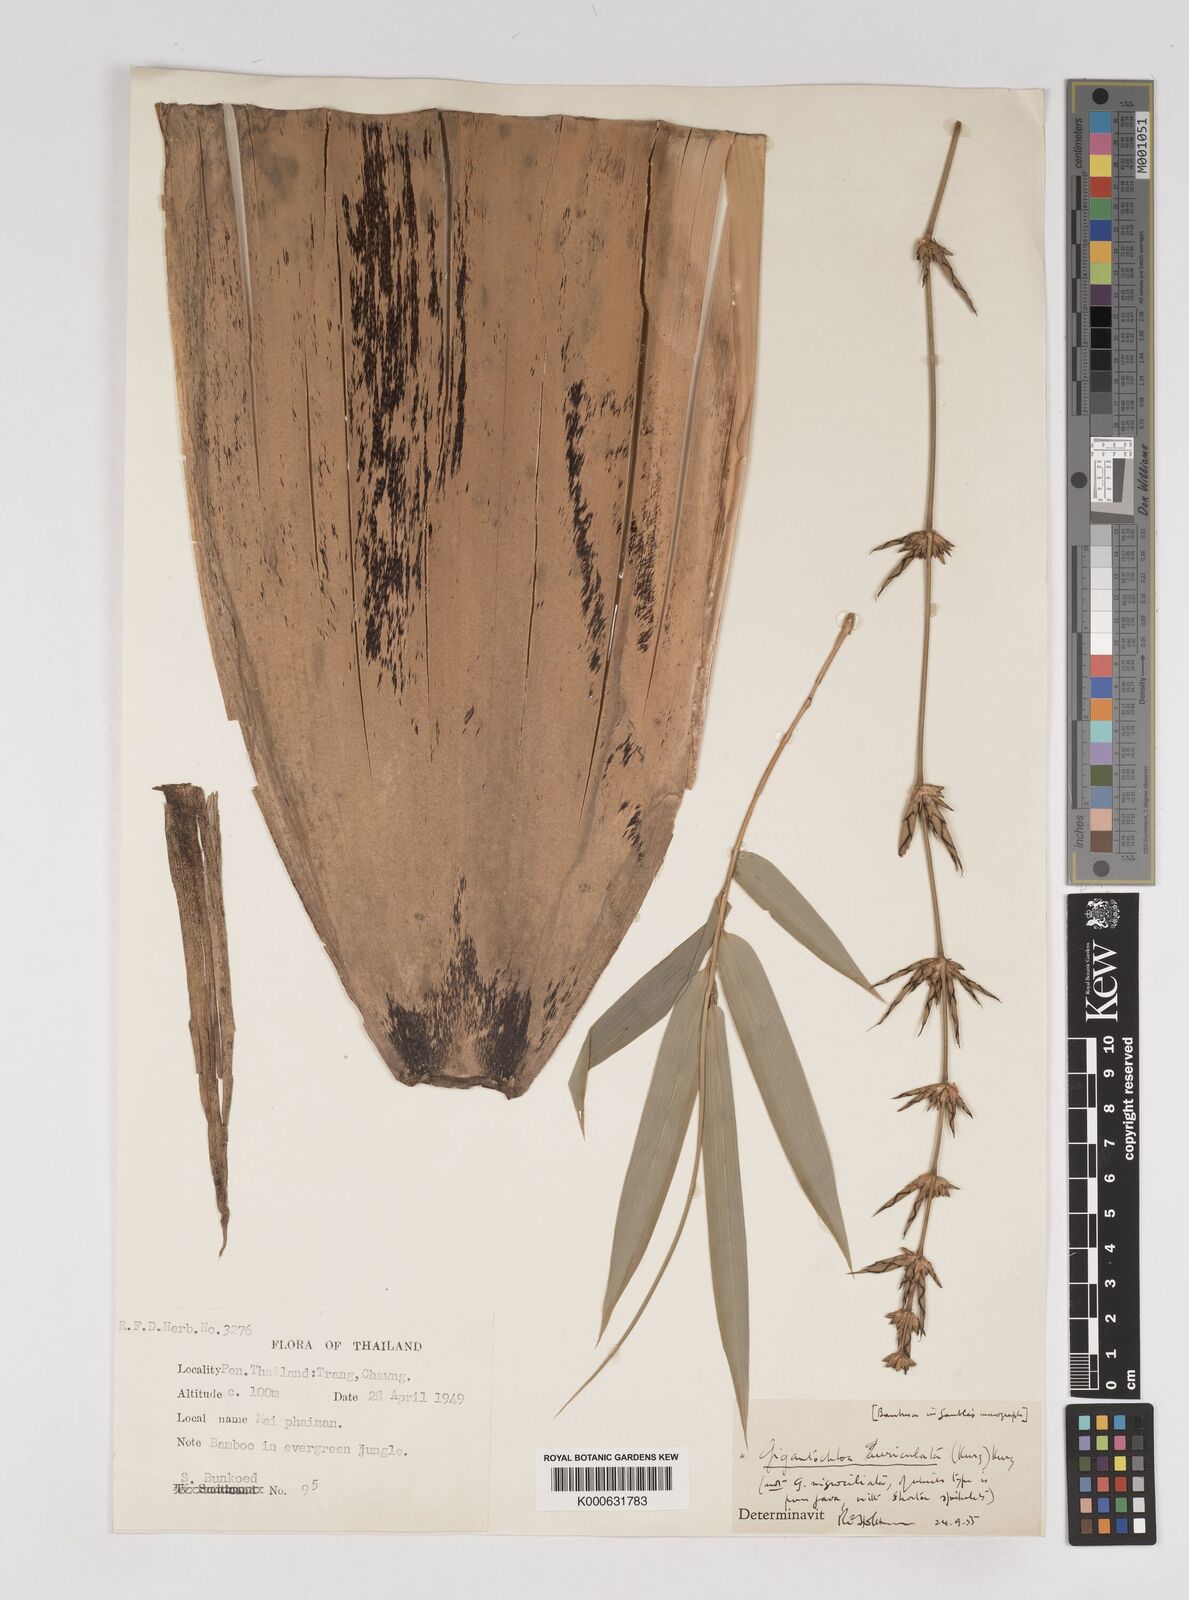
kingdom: Plantae
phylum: Tracheophyta
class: Liliopsida
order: Poales
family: Poaceae
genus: Gigantochloa
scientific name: Gigantochloa
